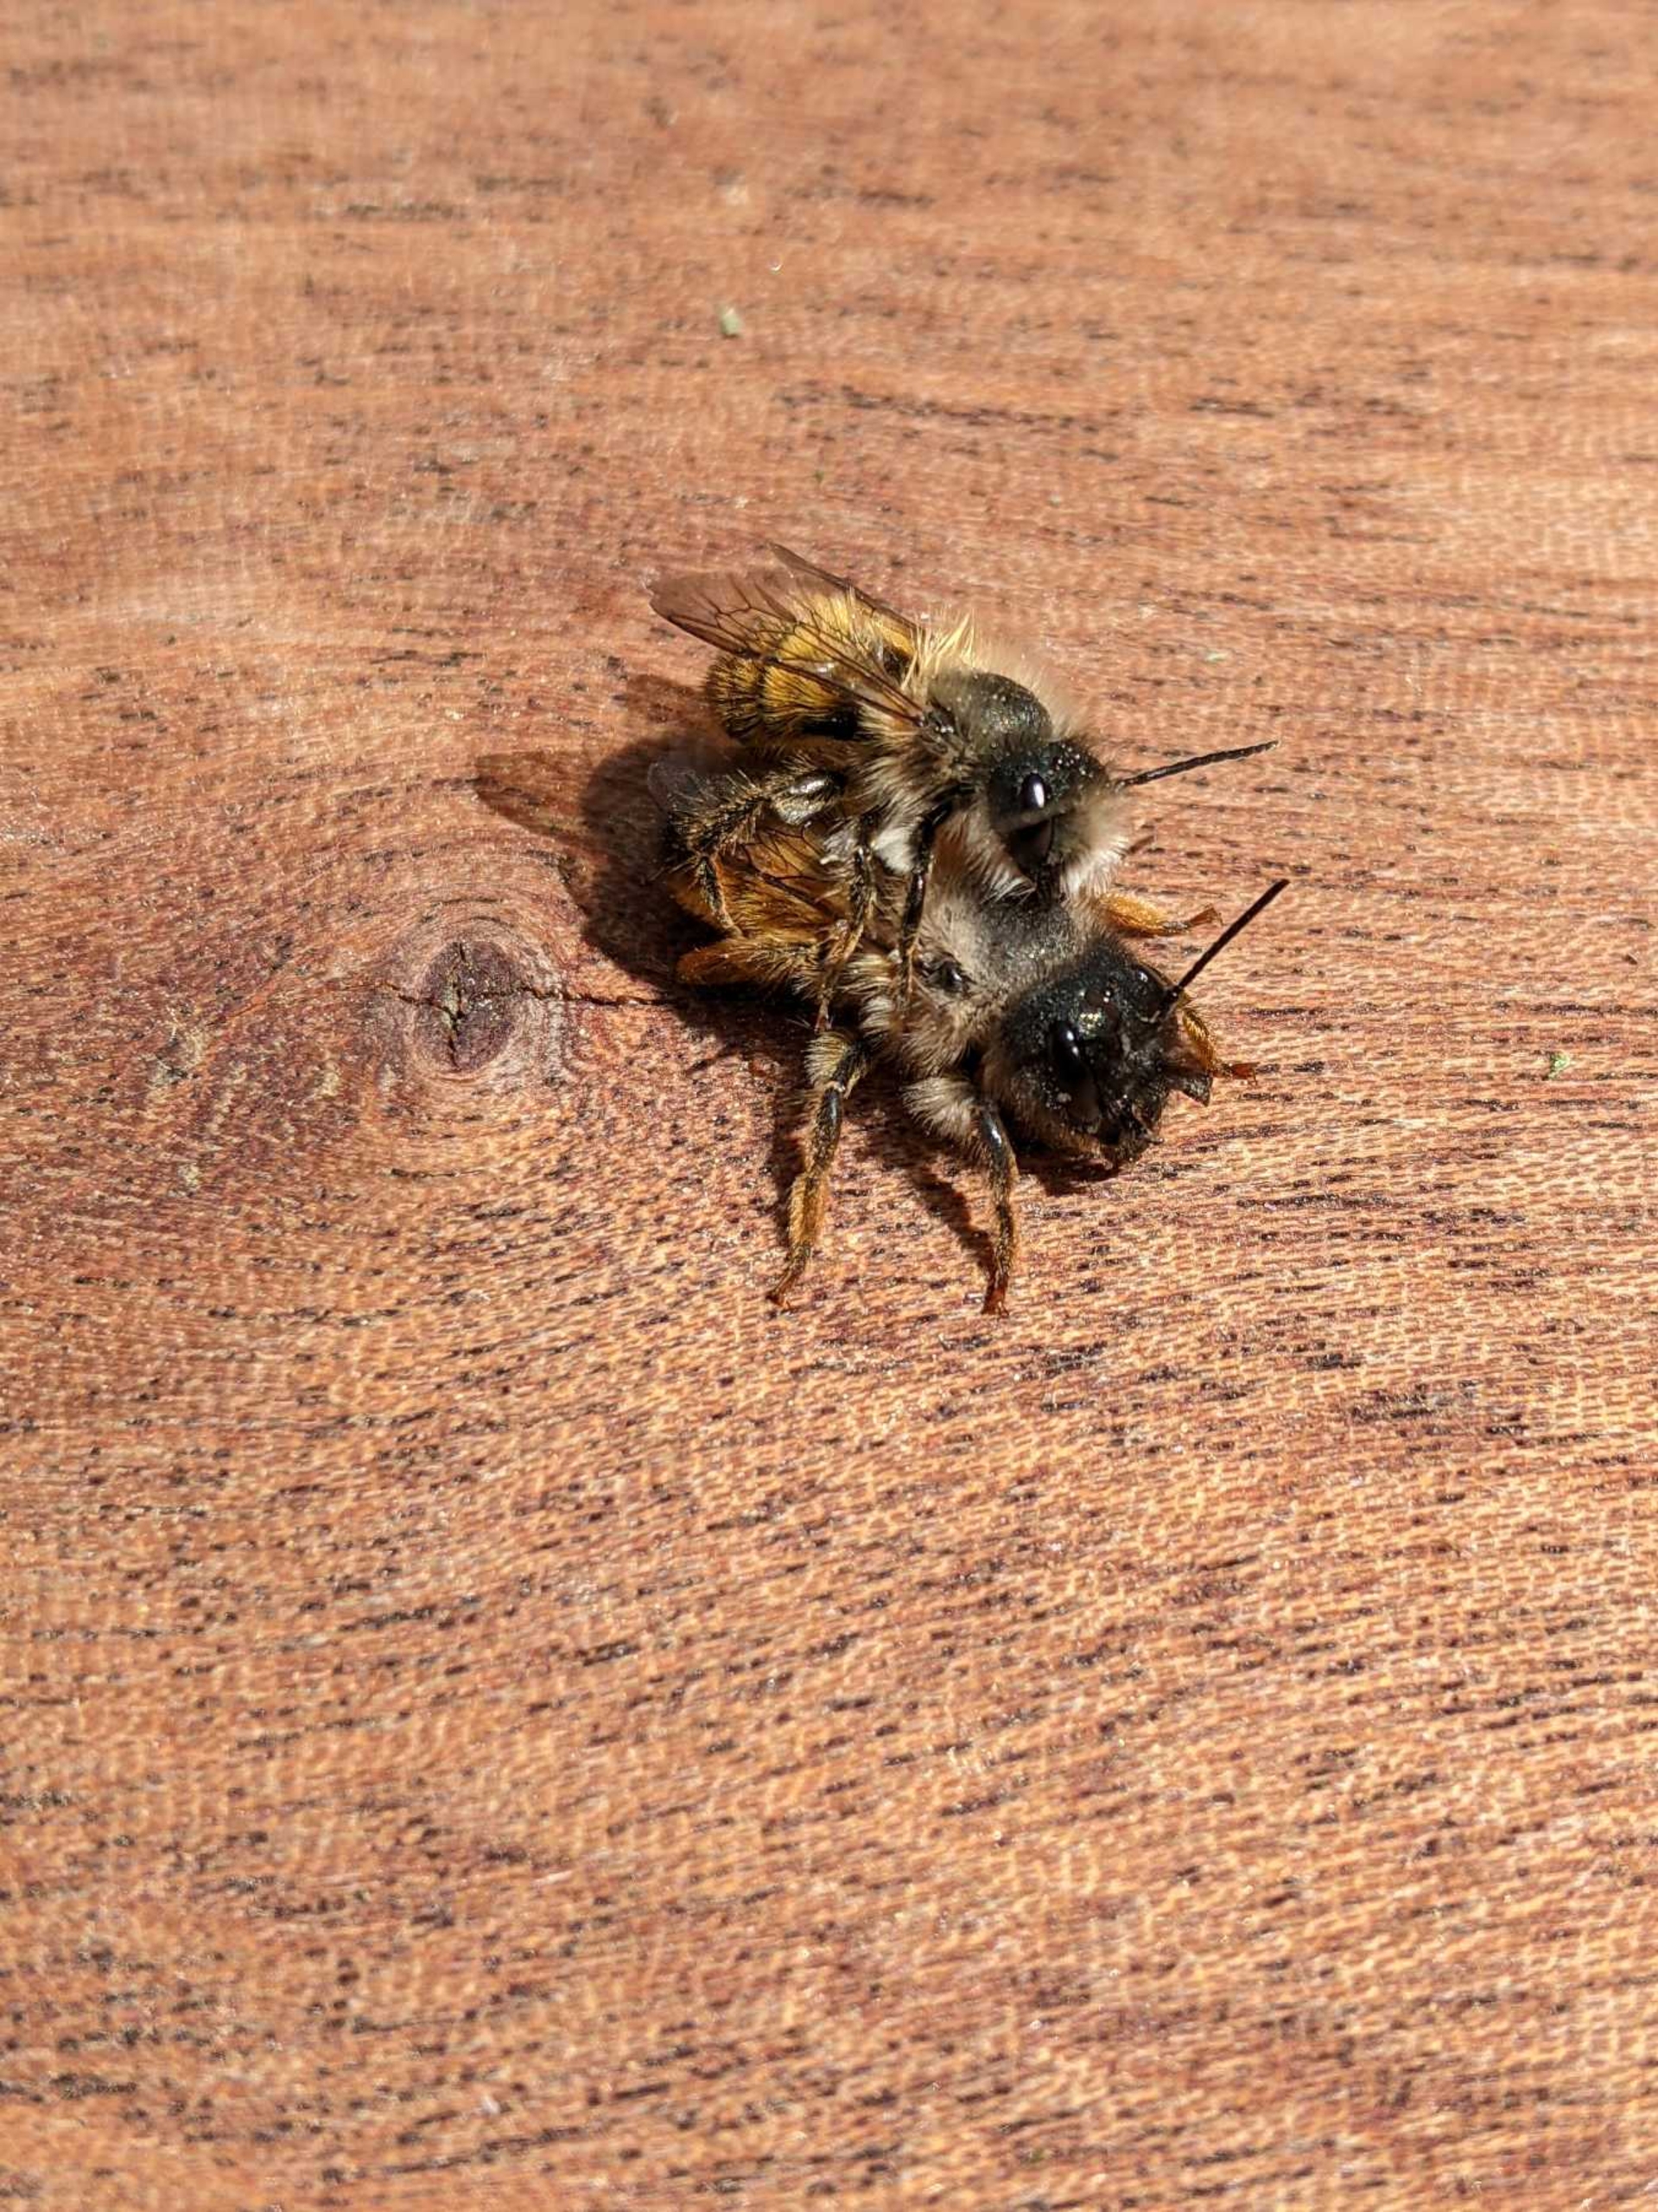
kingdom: Animalia
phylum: Arthropoda
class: Insecta
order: Hymenoptera
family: Megachilidae
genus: Osmia
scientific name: Osmia bicornis
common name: Rød murerbi
